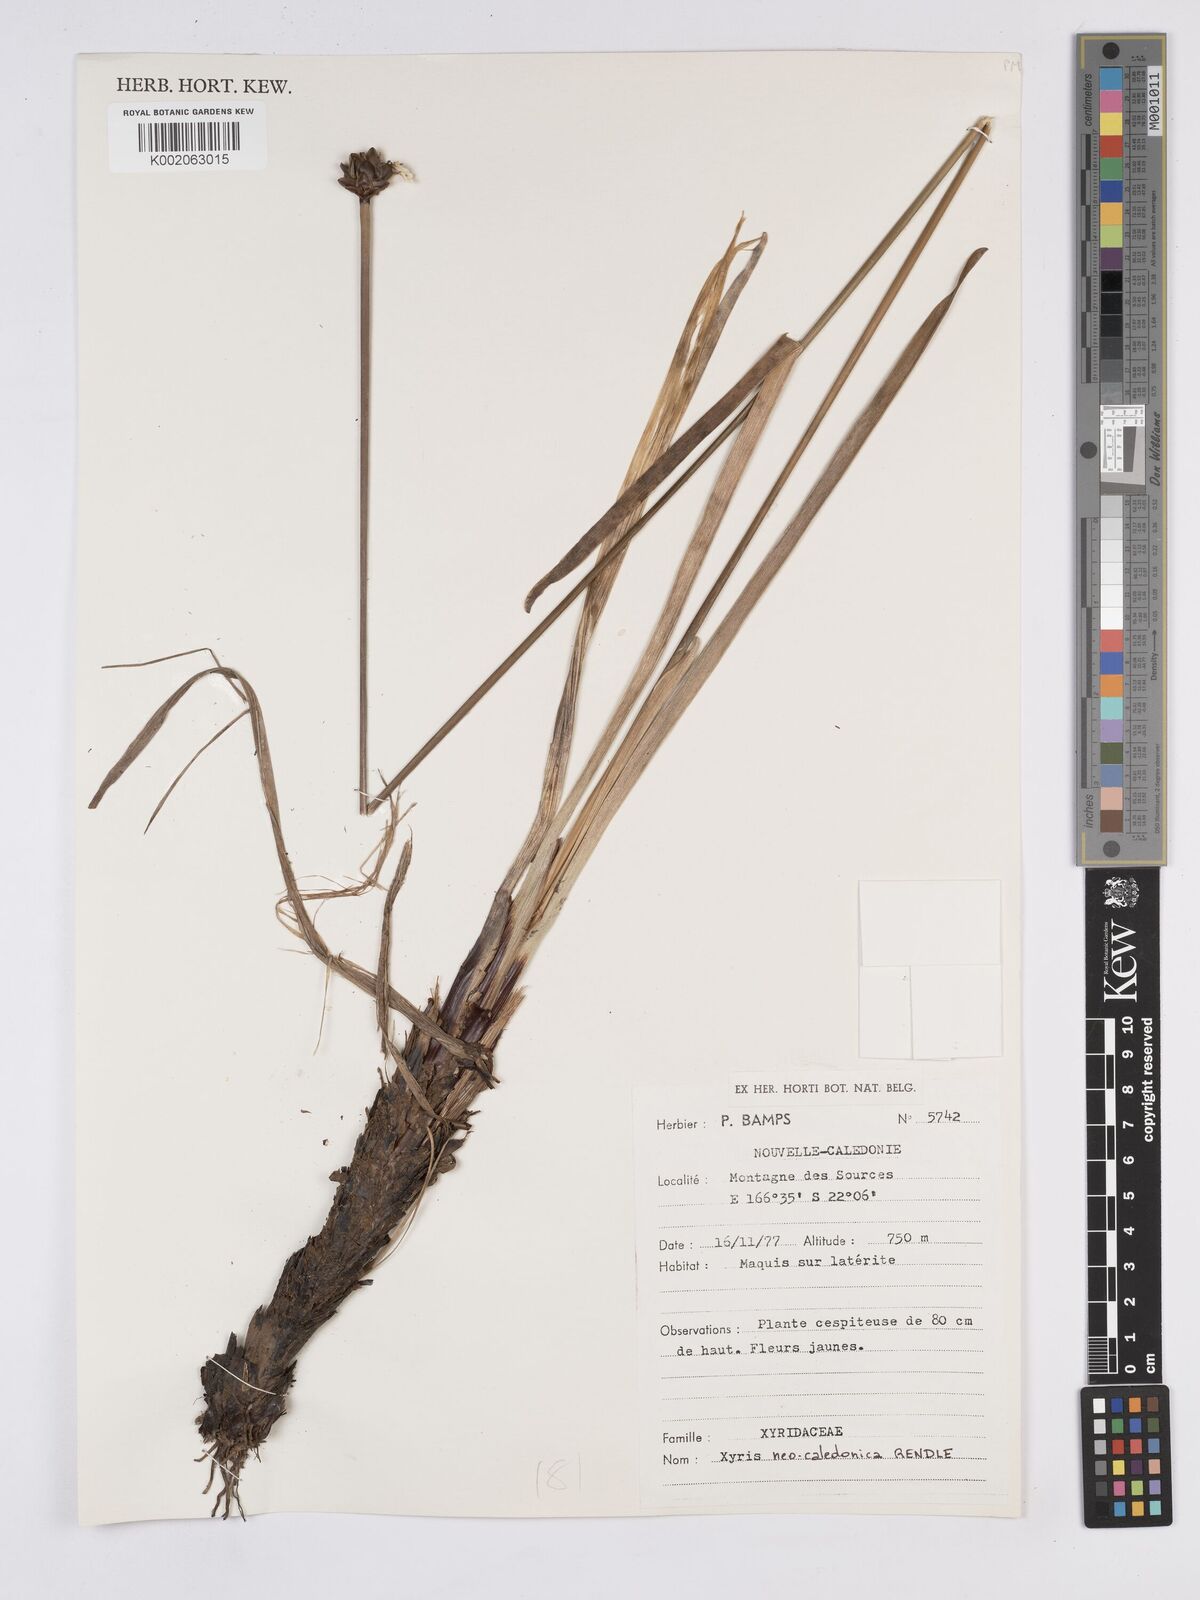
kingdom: Plantae
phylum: Tracheophyta
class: Liliopsida
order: Poales
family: Xyridaceae
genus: Xyris
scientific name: Xyris neocaledonica
